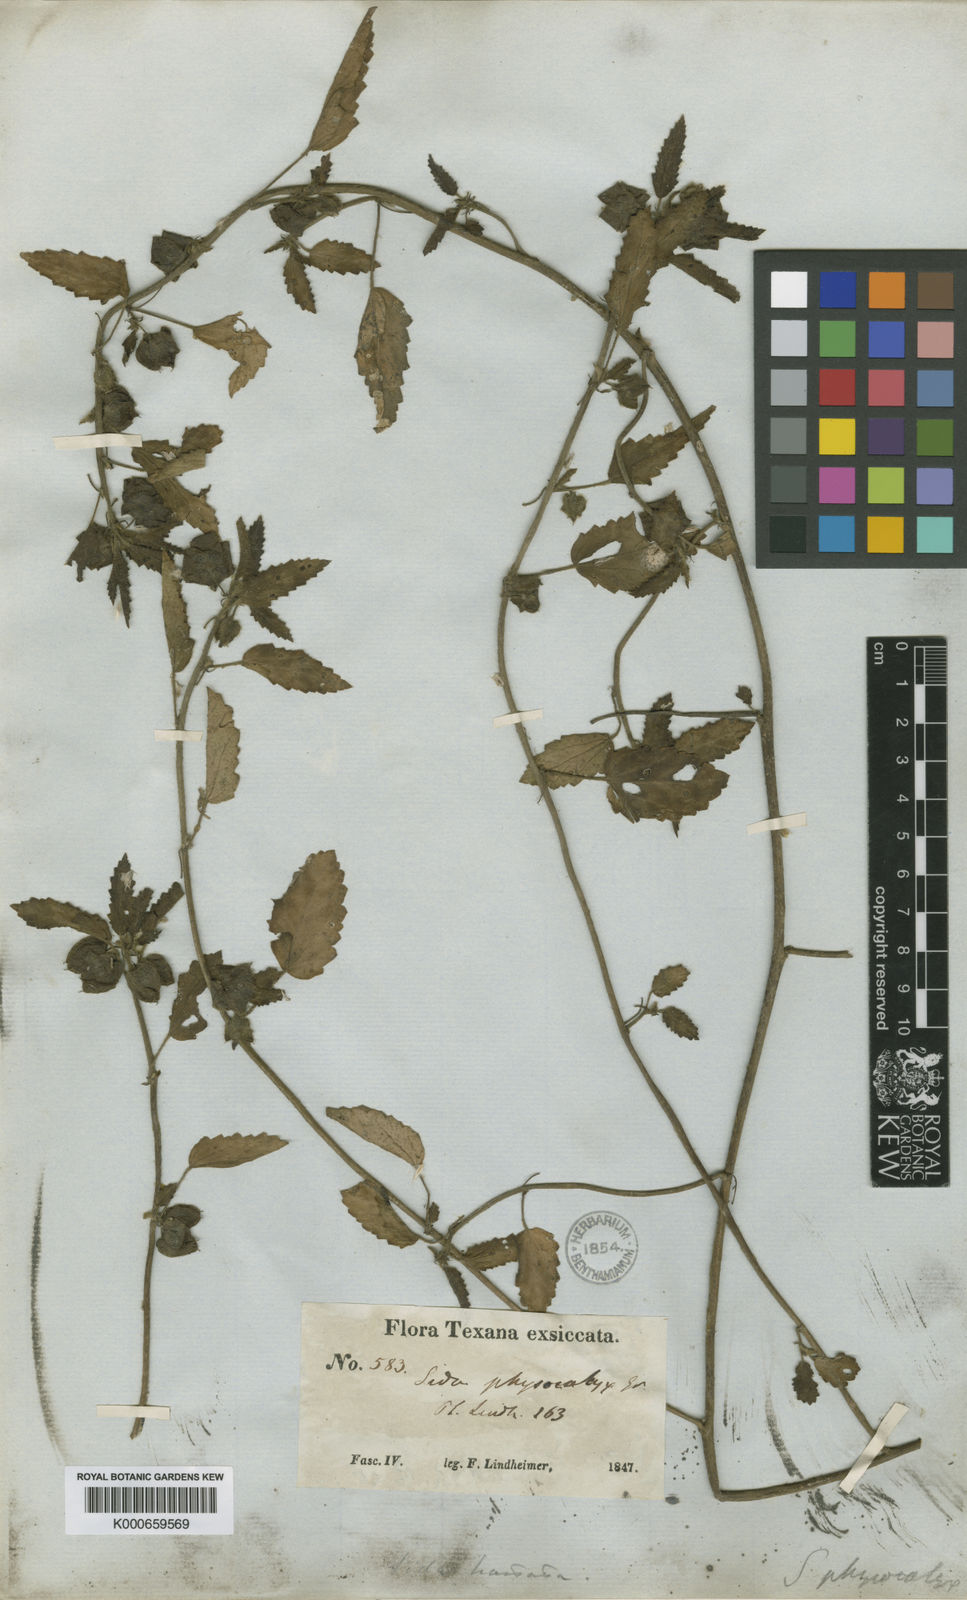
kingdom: Plantae
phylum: Tracheophyta
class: Magnoliopsida
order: Malvales
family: Malvaceae
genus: Rhynchosida
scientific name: Rhynchosida physocalyx
